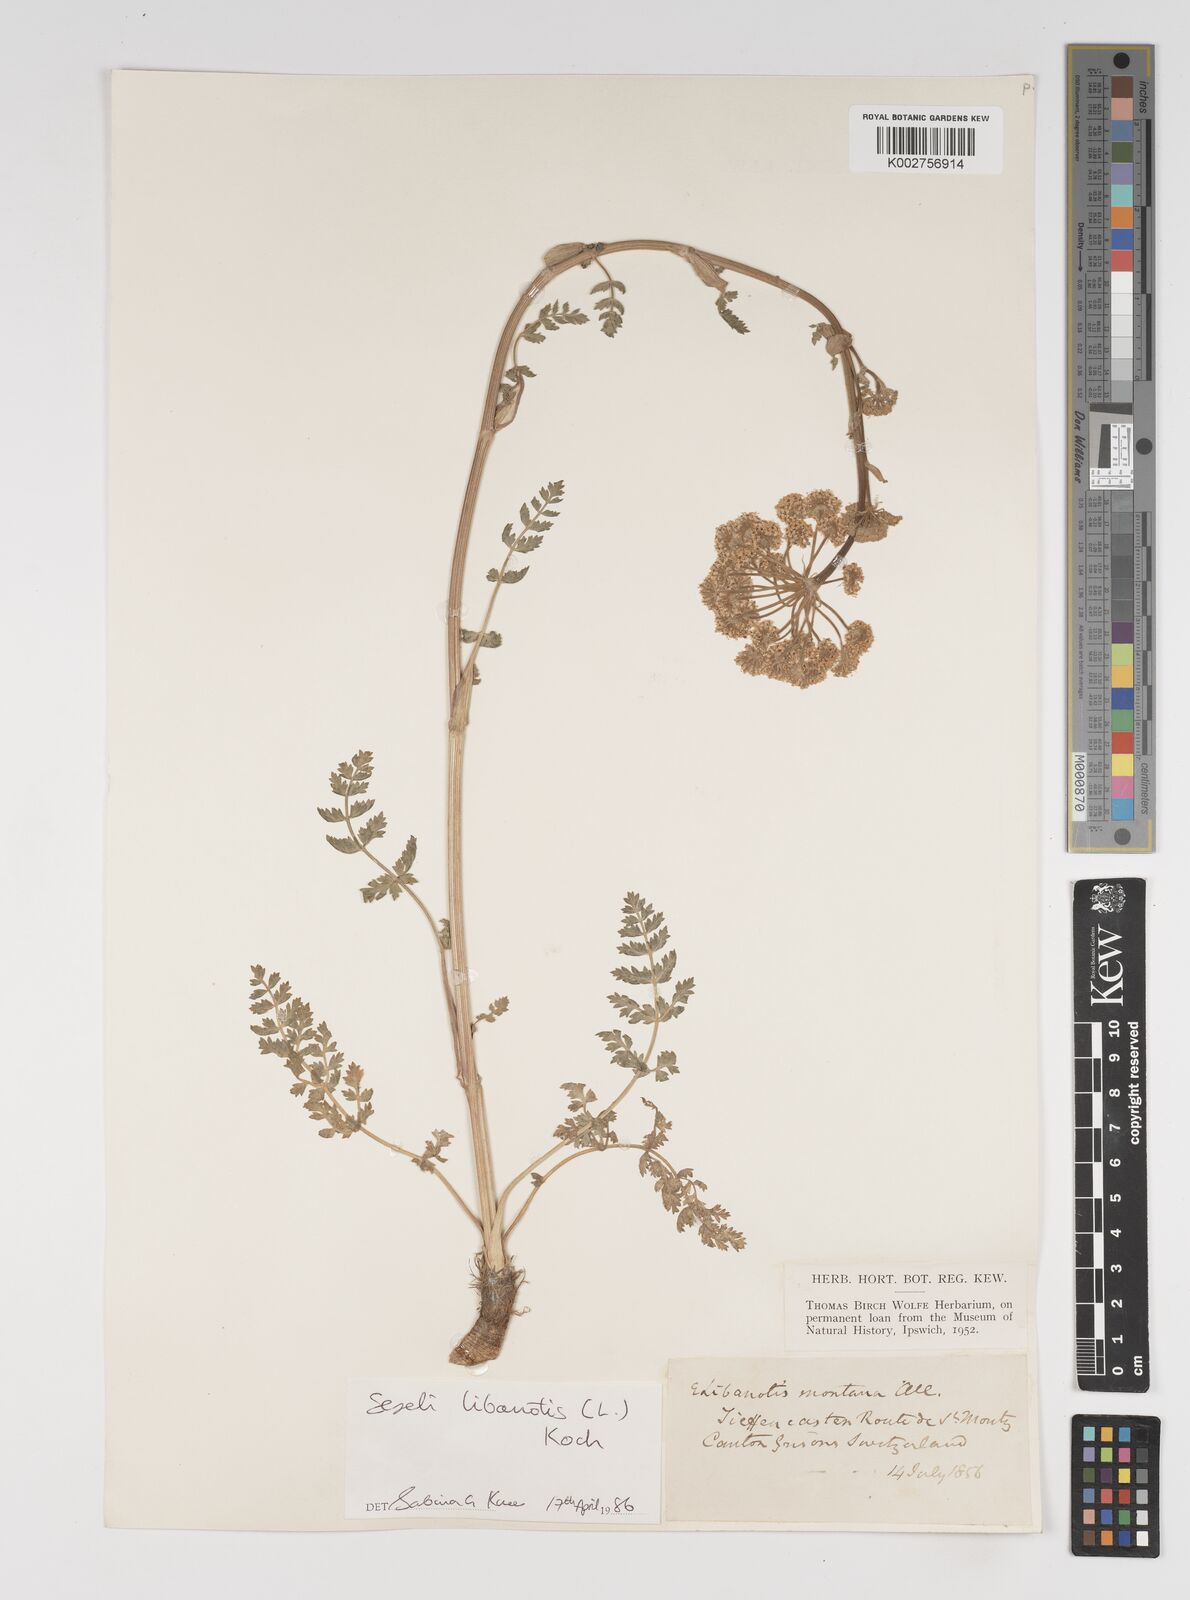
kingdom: Plantae
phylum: Tracheophyta
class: Magnoliopsida
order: Apiales
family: Apiaceae
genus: Seseli
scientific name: Seseli libanotis
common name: Mooncarrot
